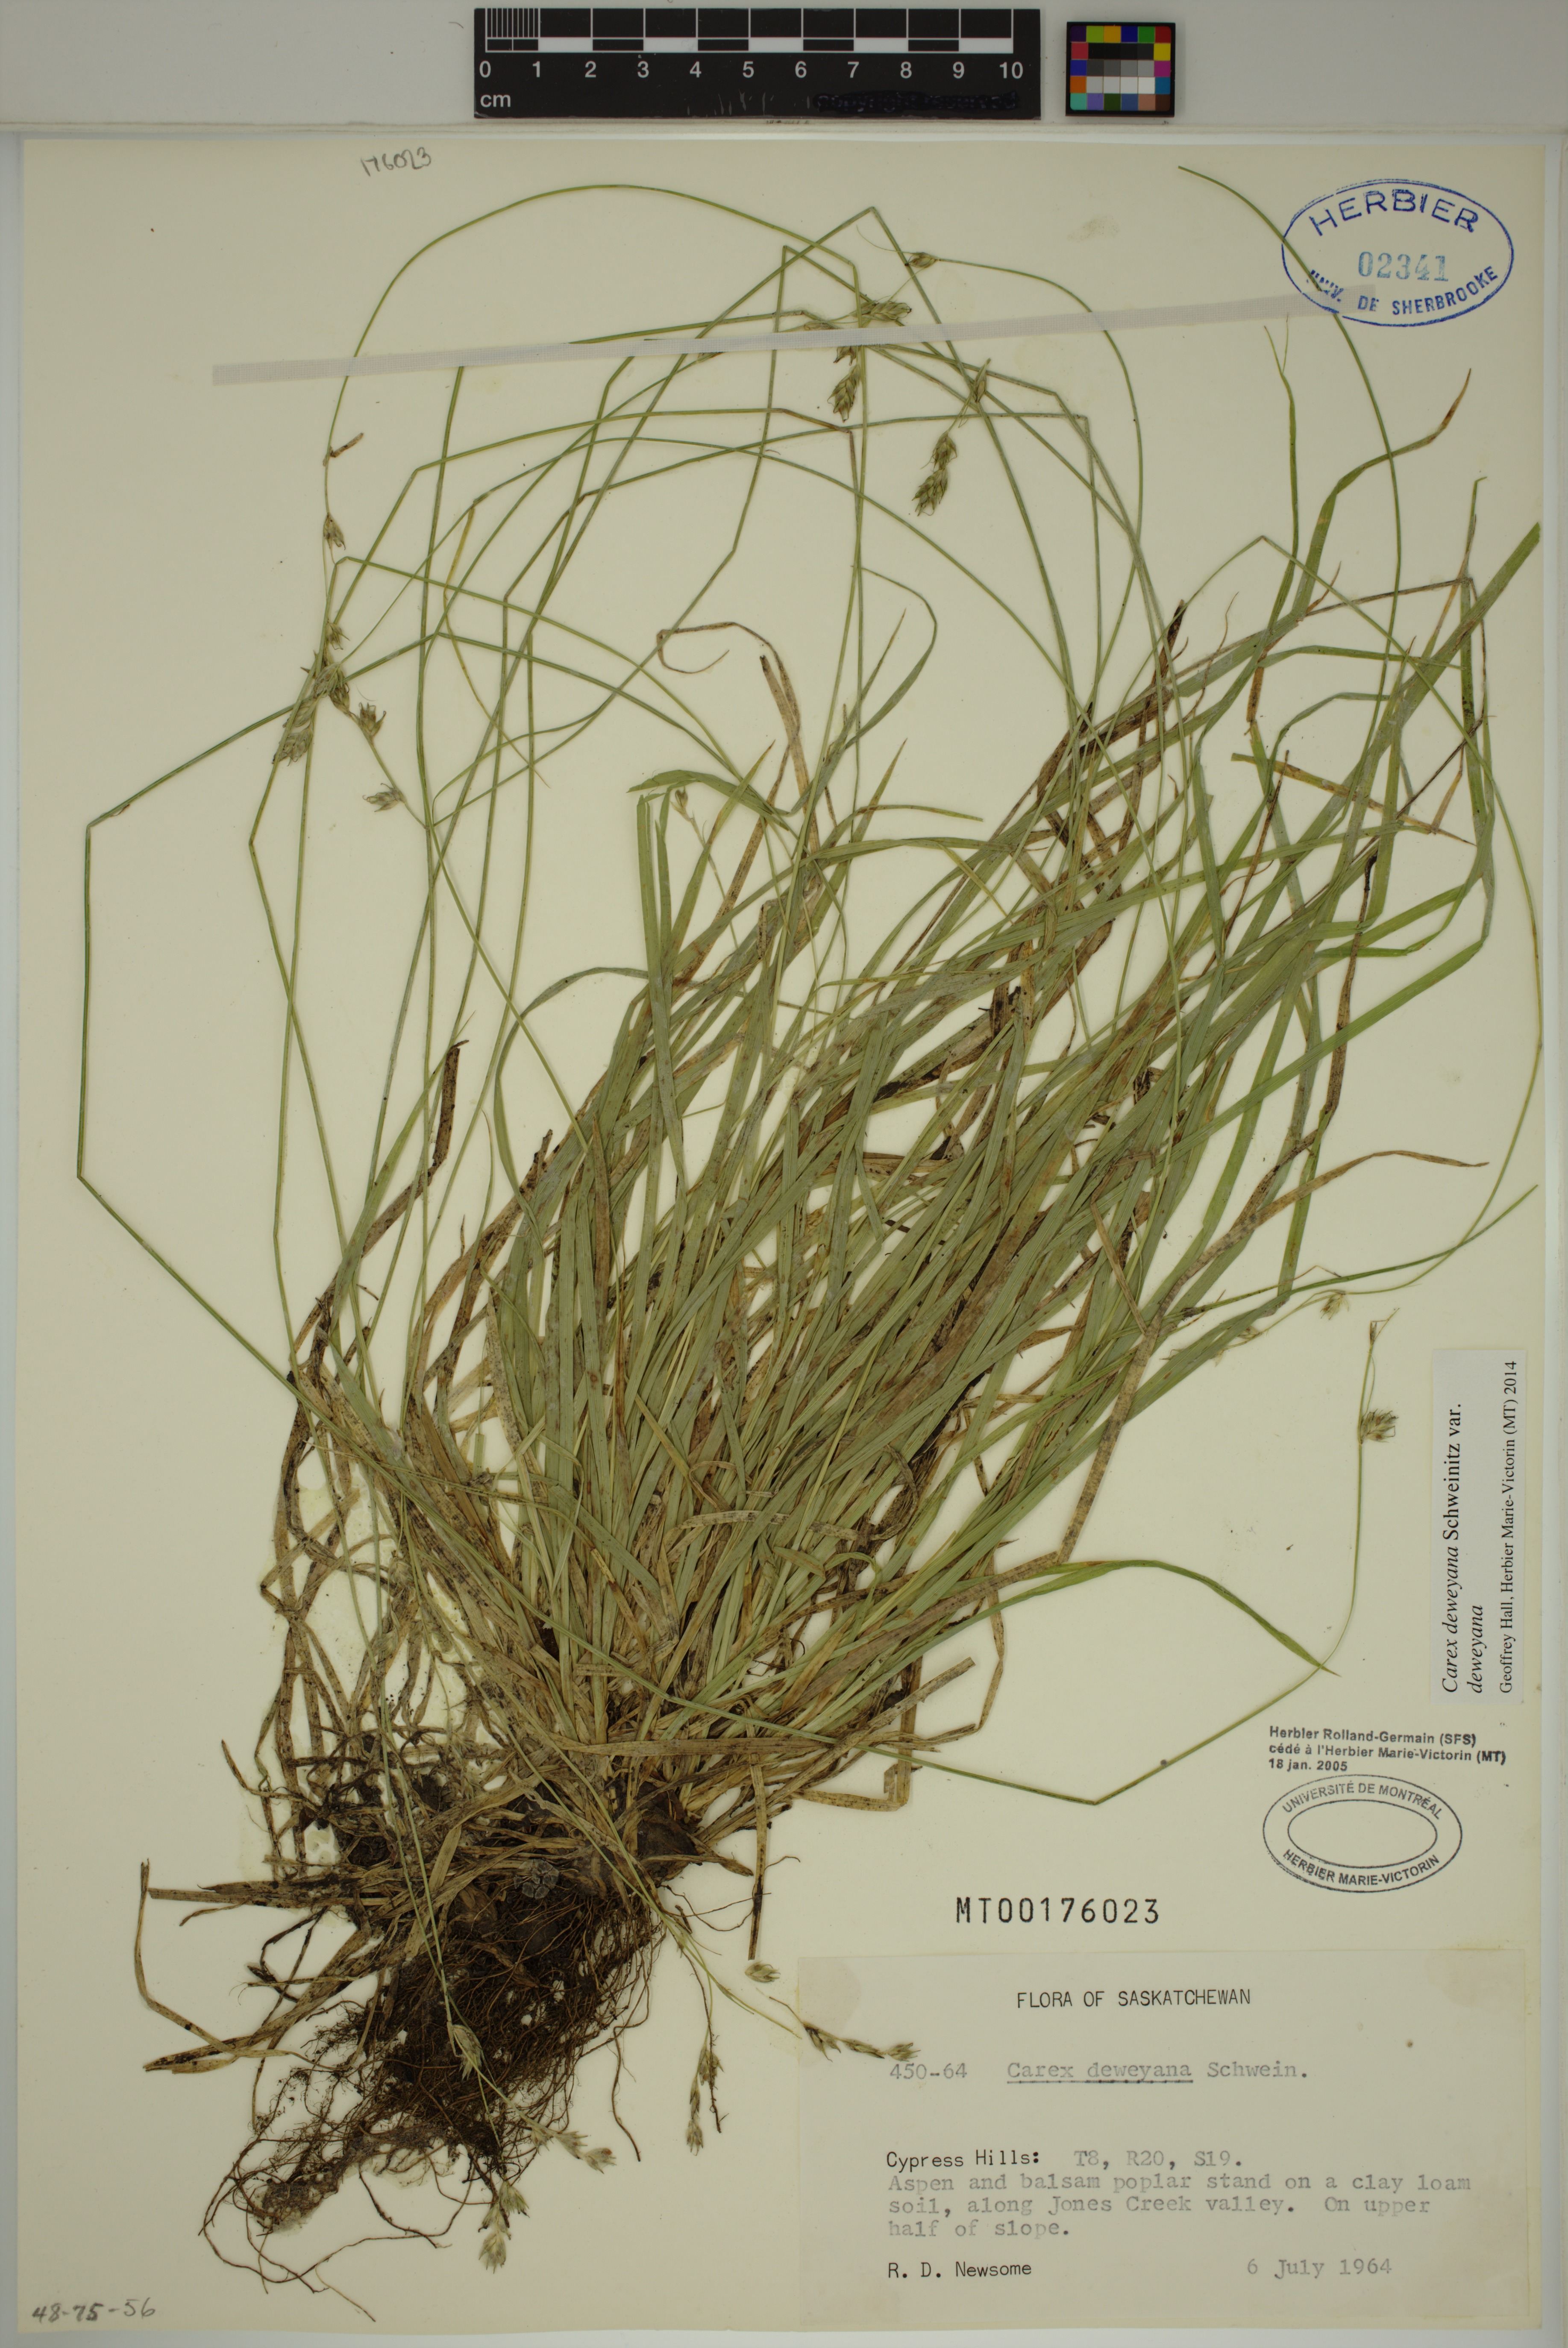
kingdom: Plantae
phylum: Tracheophyta
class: Liliopsida
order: Poales
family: Cyperaceae
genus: Carex
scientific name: Carex deweyana
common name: Dewey's sedge
